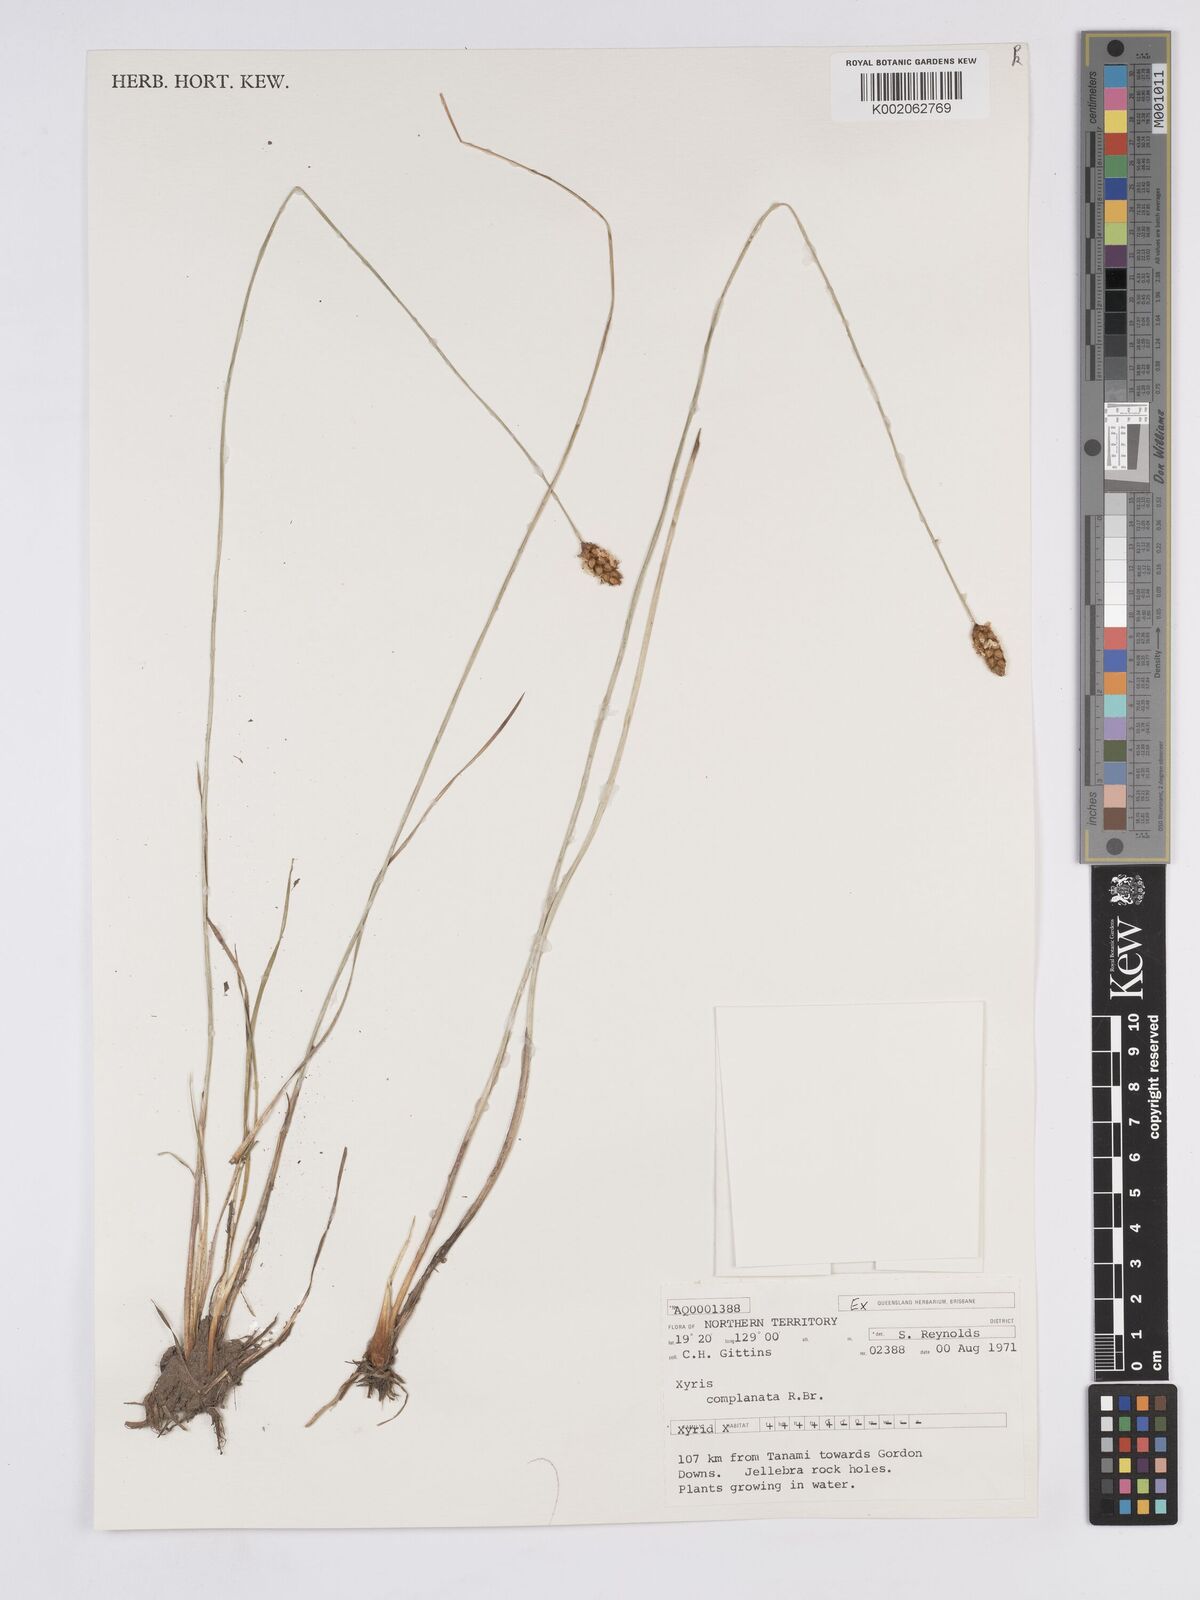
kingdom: Plantae
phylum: Tracheophyta
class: Liliopsida
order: Poales
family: Xyridaceae
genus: Xyris
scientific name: Xyris complanata
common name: Hawai'i yelloweyed grass
